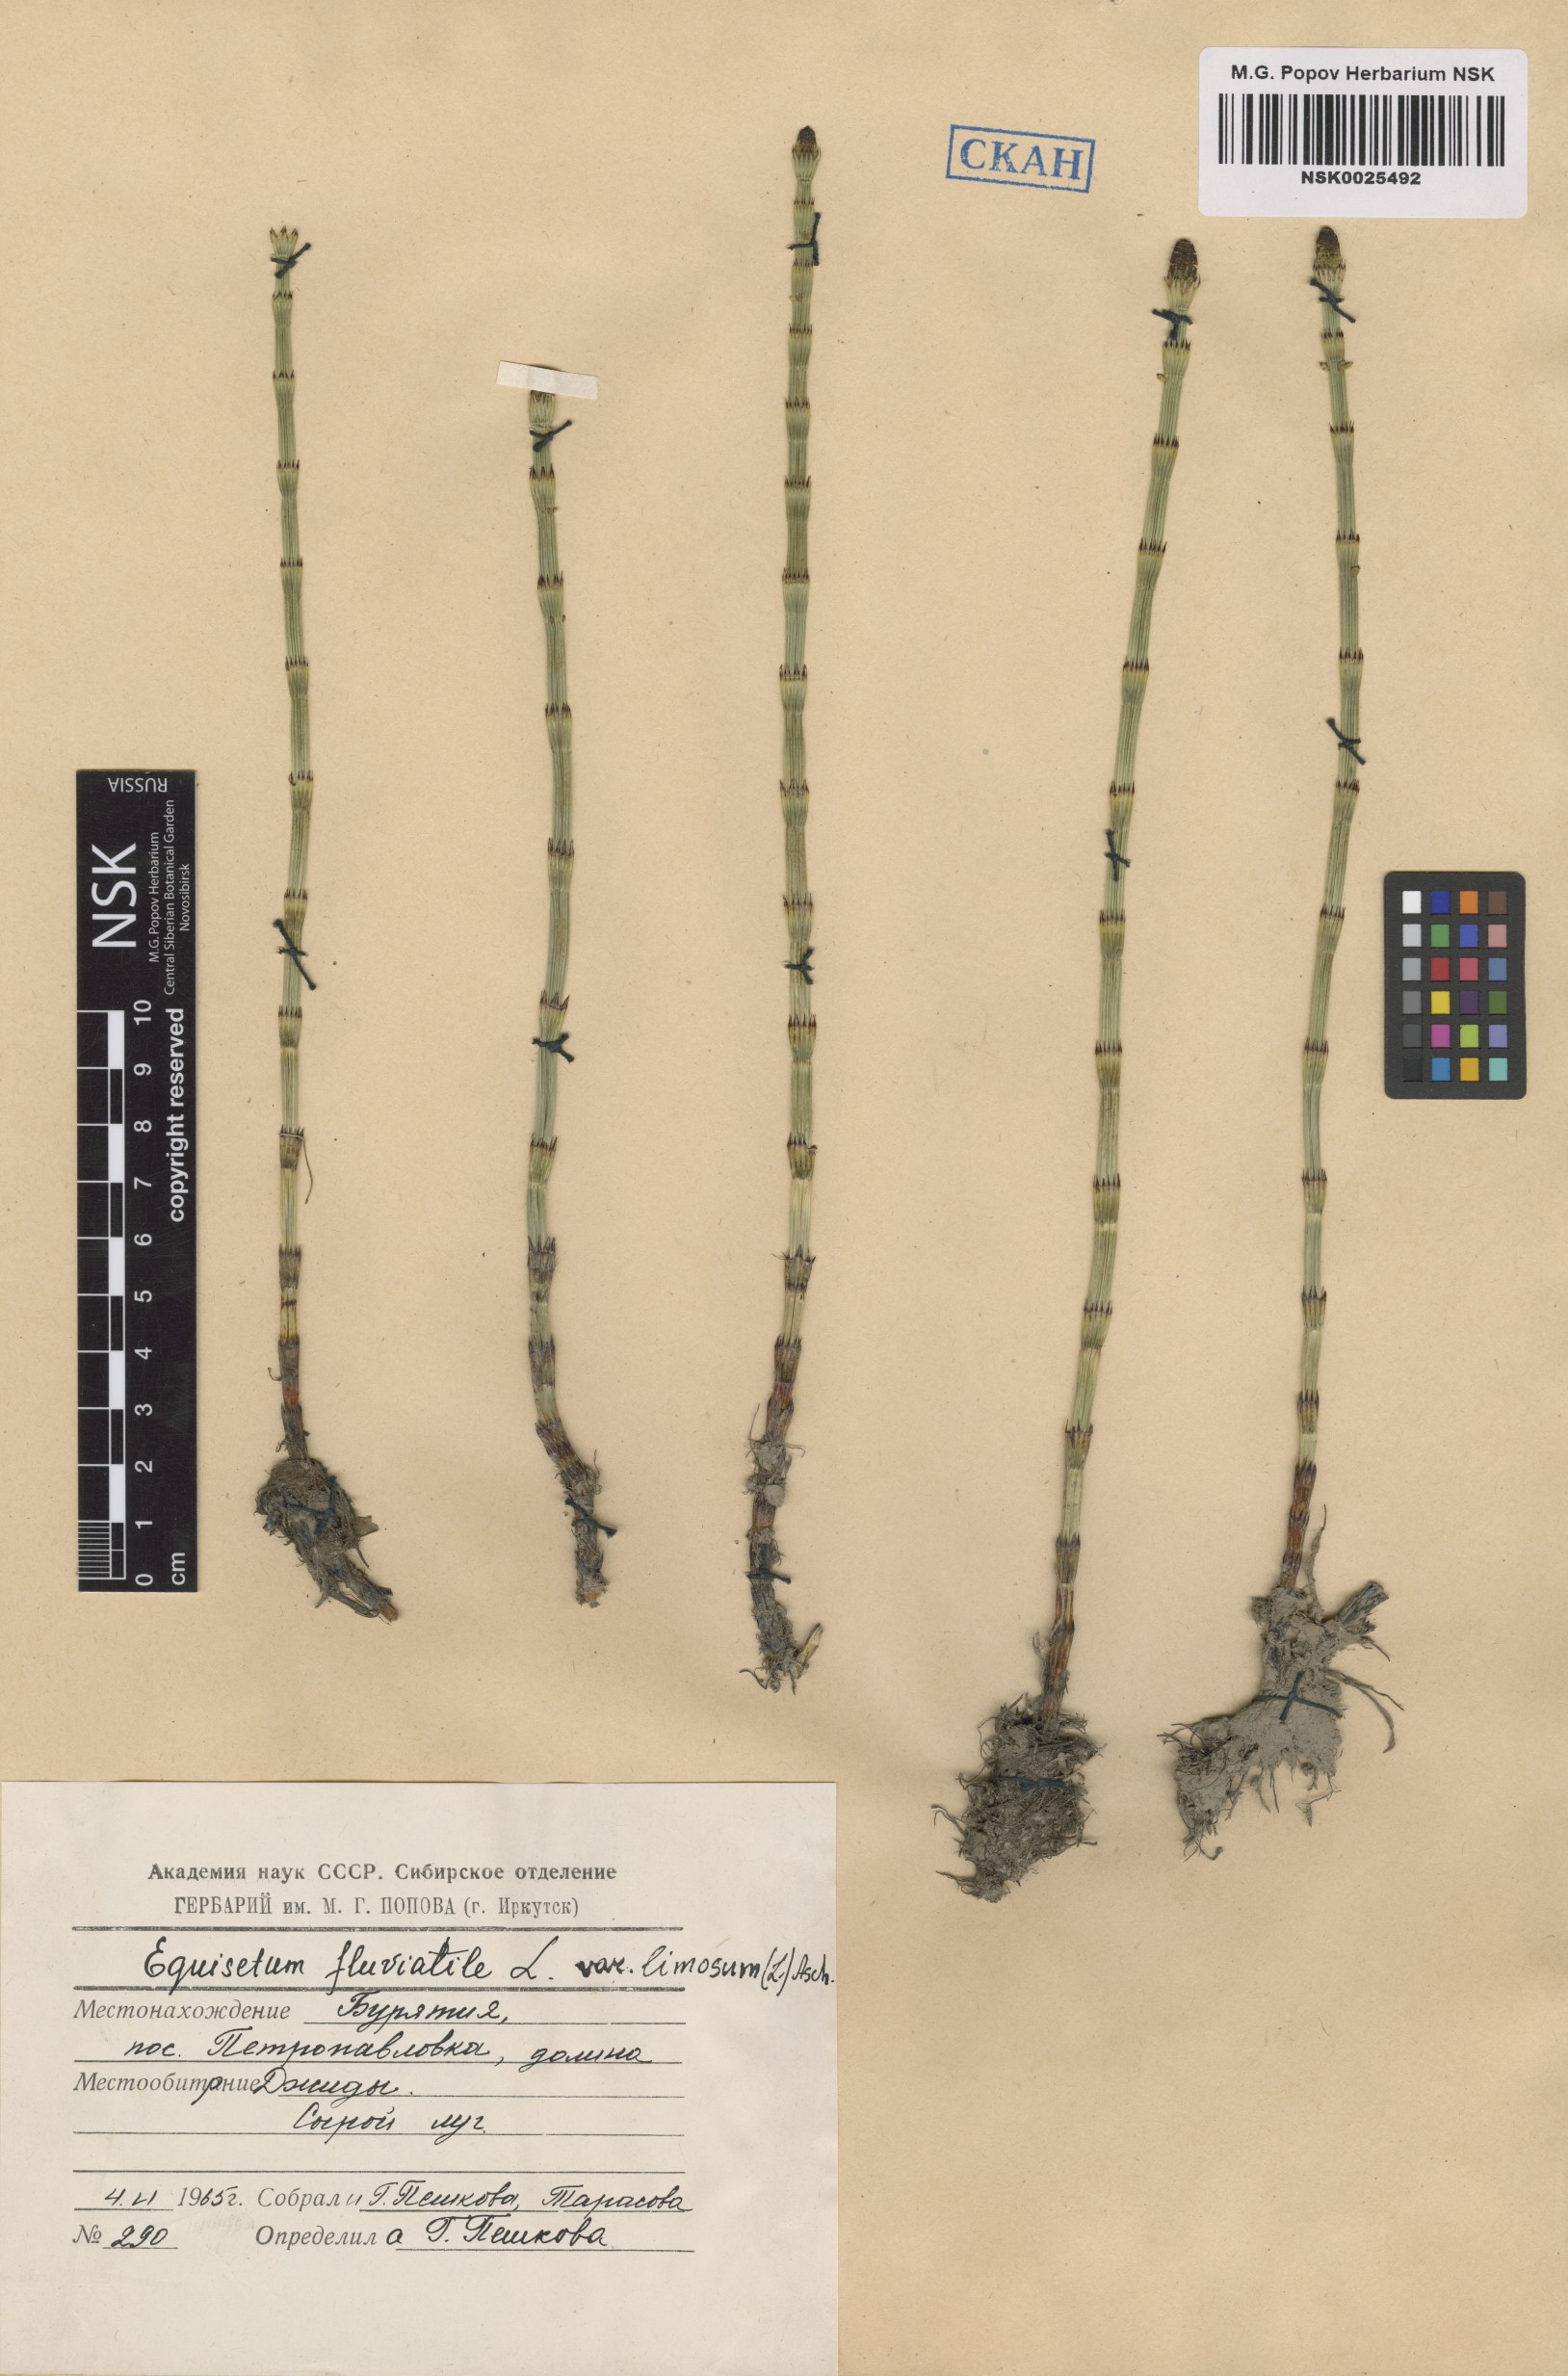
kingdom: Plantae
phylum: Tracheophyta
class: Polypodiopsida
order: Equisetales
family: Equisetaceae
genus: Equisetum
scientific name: Equisetum fluviatile
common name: Water horsetail
